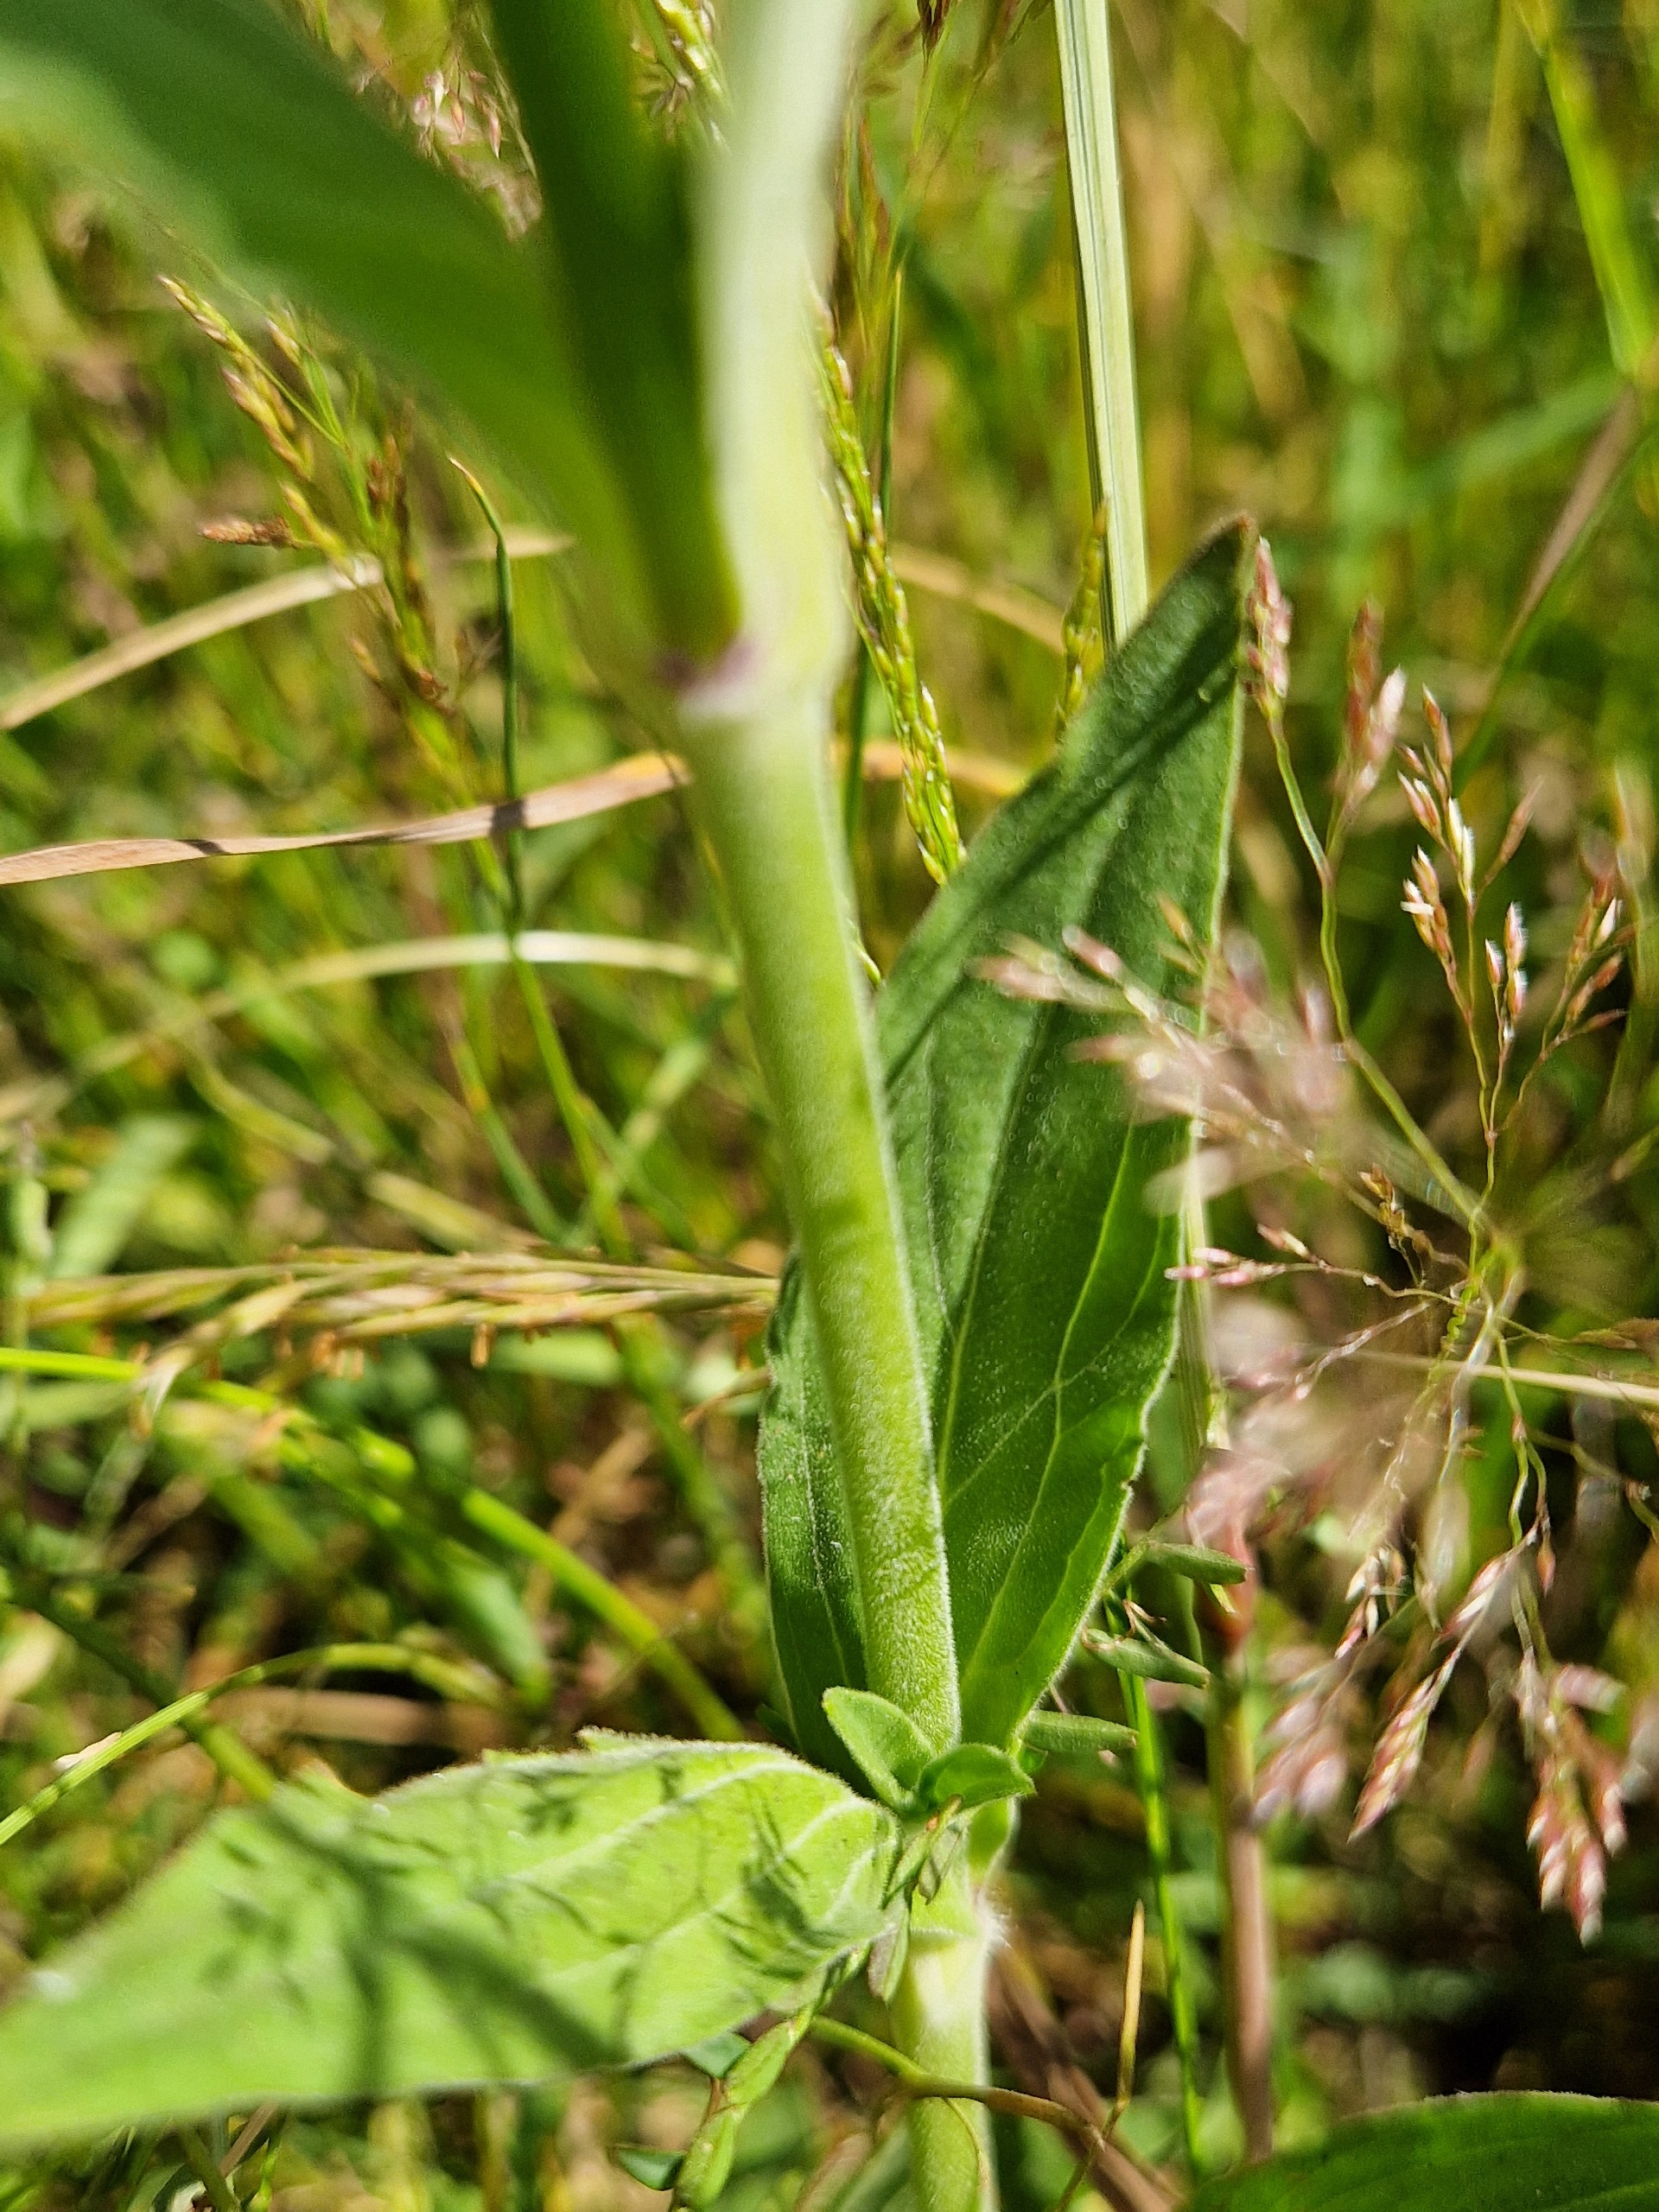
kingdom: Plantae
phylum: Tracheophyta
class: Magnoliopsida
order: Caryophyllales
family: Caryophyllaceae
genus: Silene
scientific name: Silene latifolia
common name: Aftenpragtstjerne
